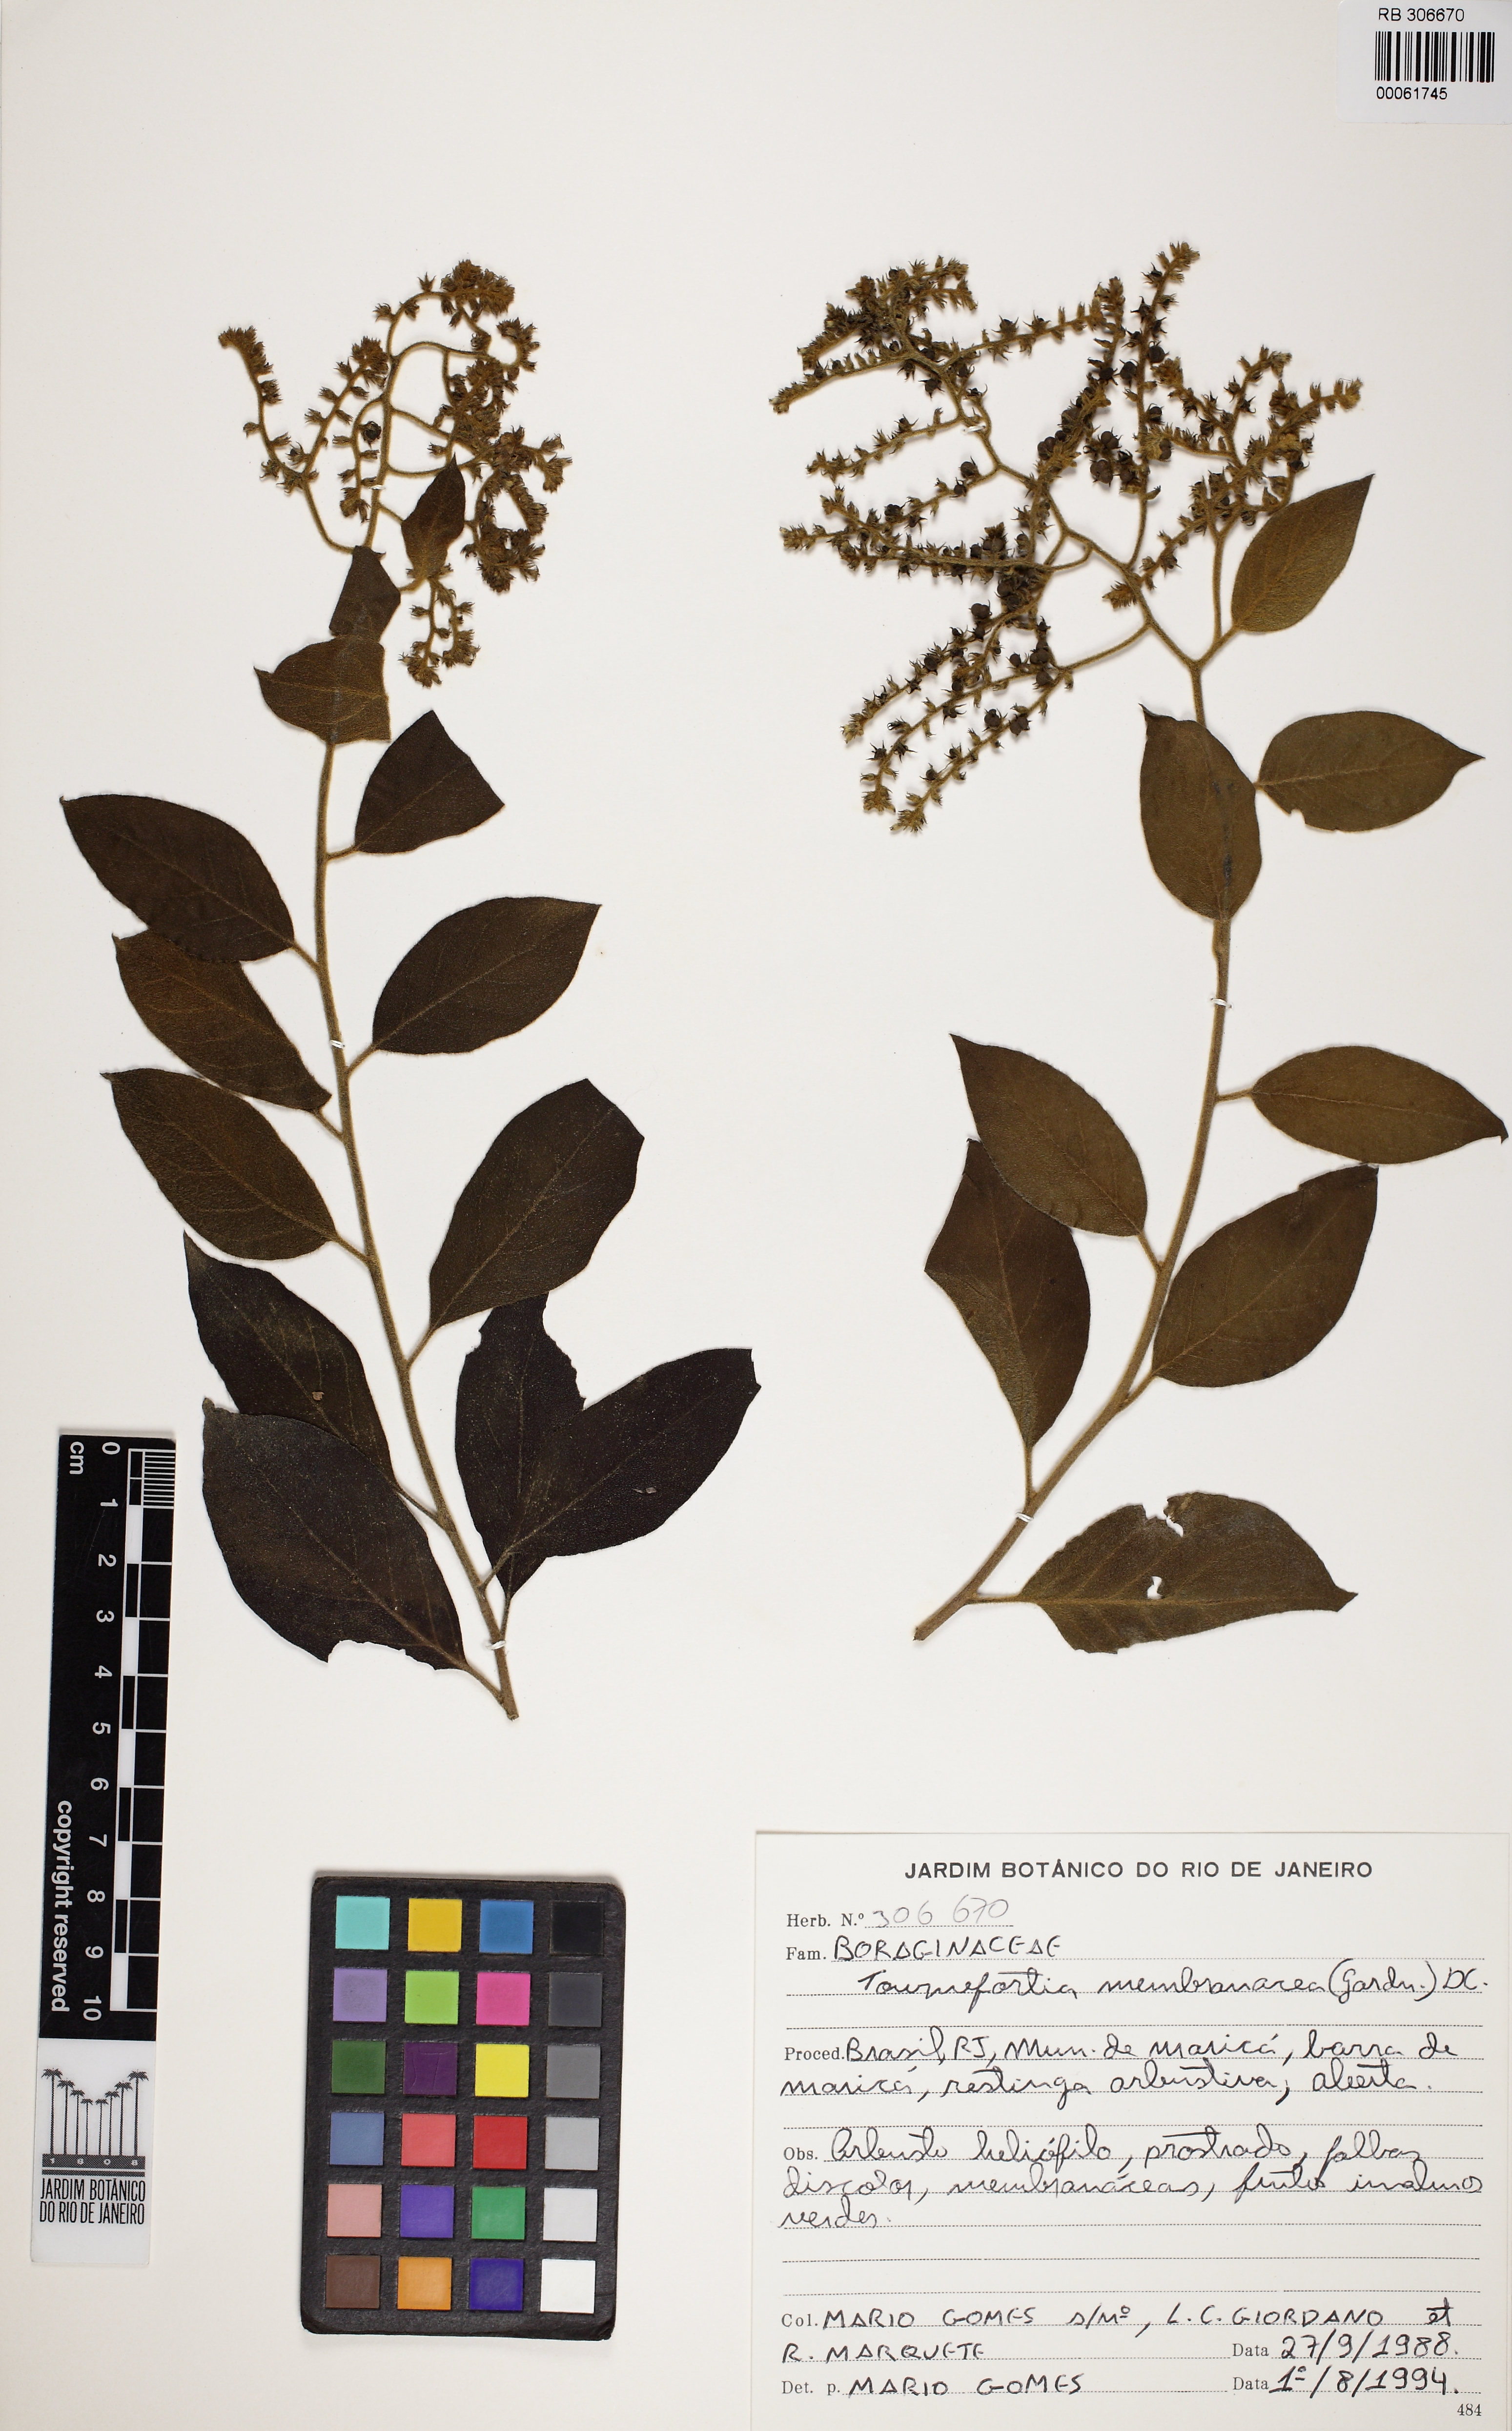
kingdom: Plantae
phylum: Tracheophyta
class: Magnoliopsida
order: Boraginales
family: Heliotropiaceae
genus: Myriopus
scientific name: Myriopus membranaceus
